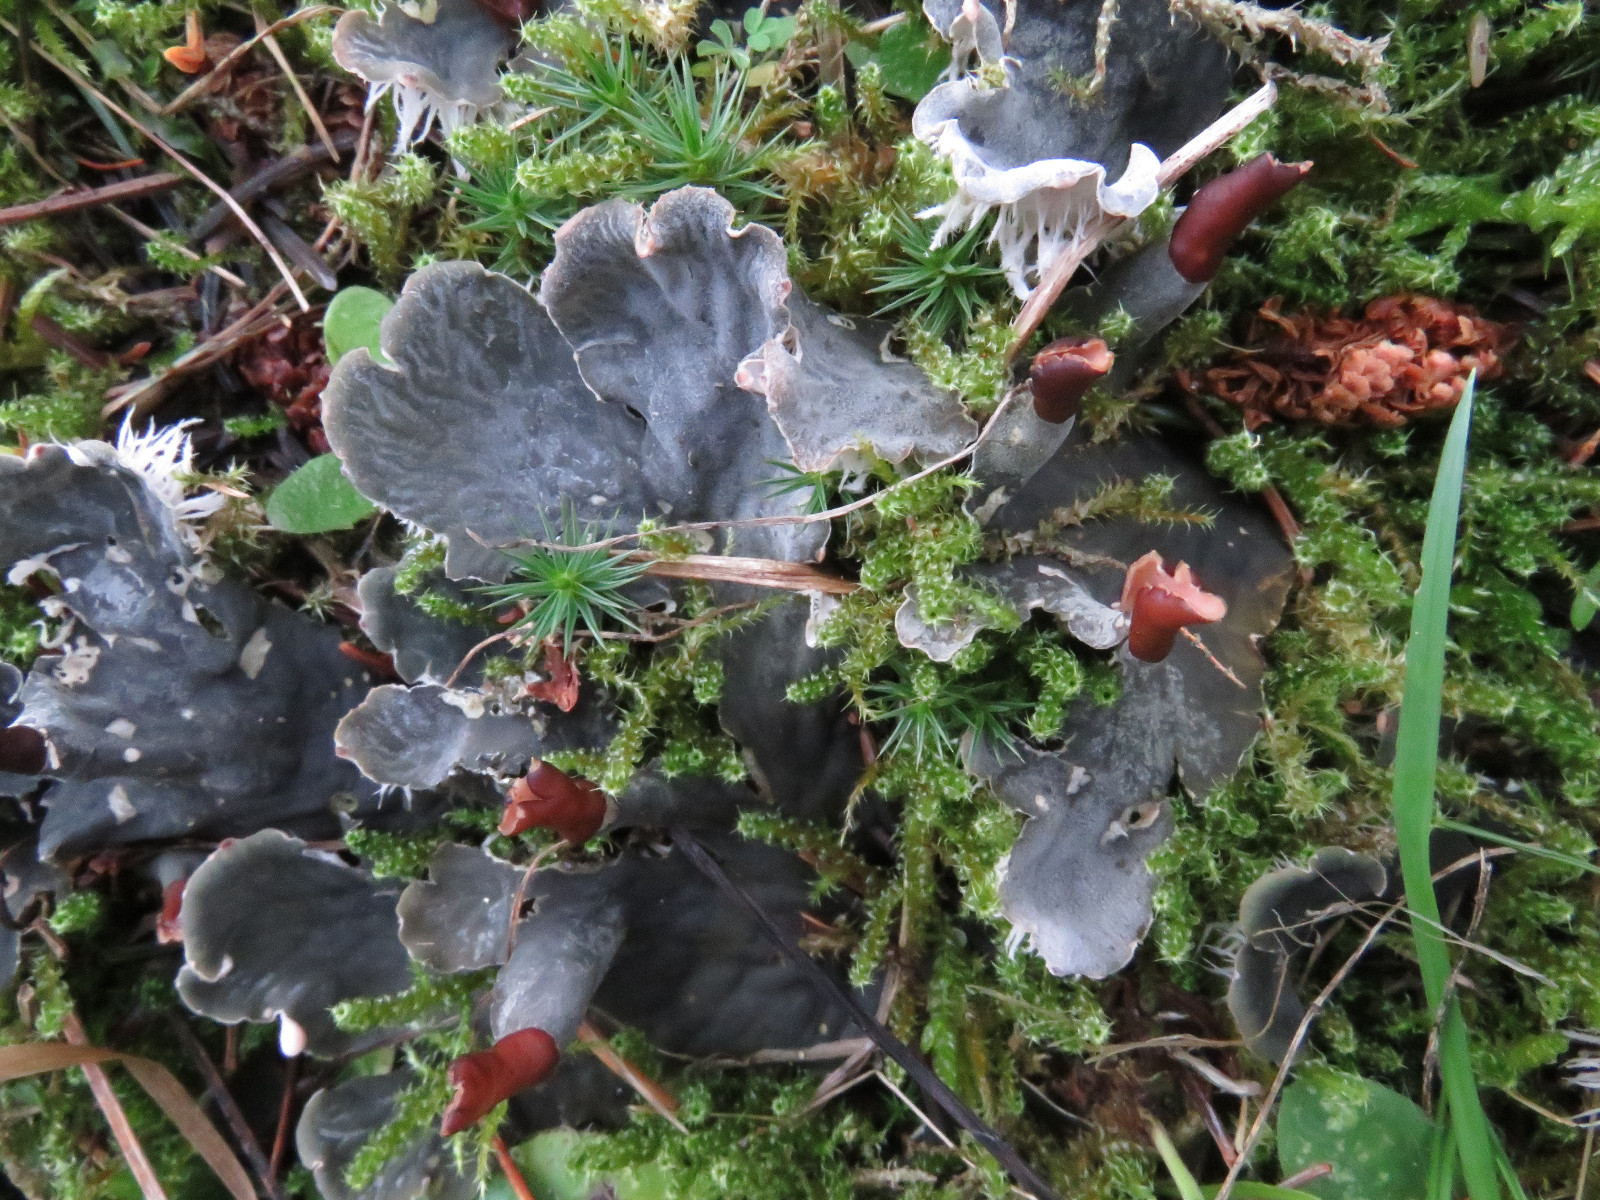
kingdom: Fungi
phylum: Ascomycota
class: Lecanoromycetes
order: Peltigerales
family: Peltigeraceae
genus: Peltigera
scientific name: Peltigera membranacea
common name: tynd skjoldlav
